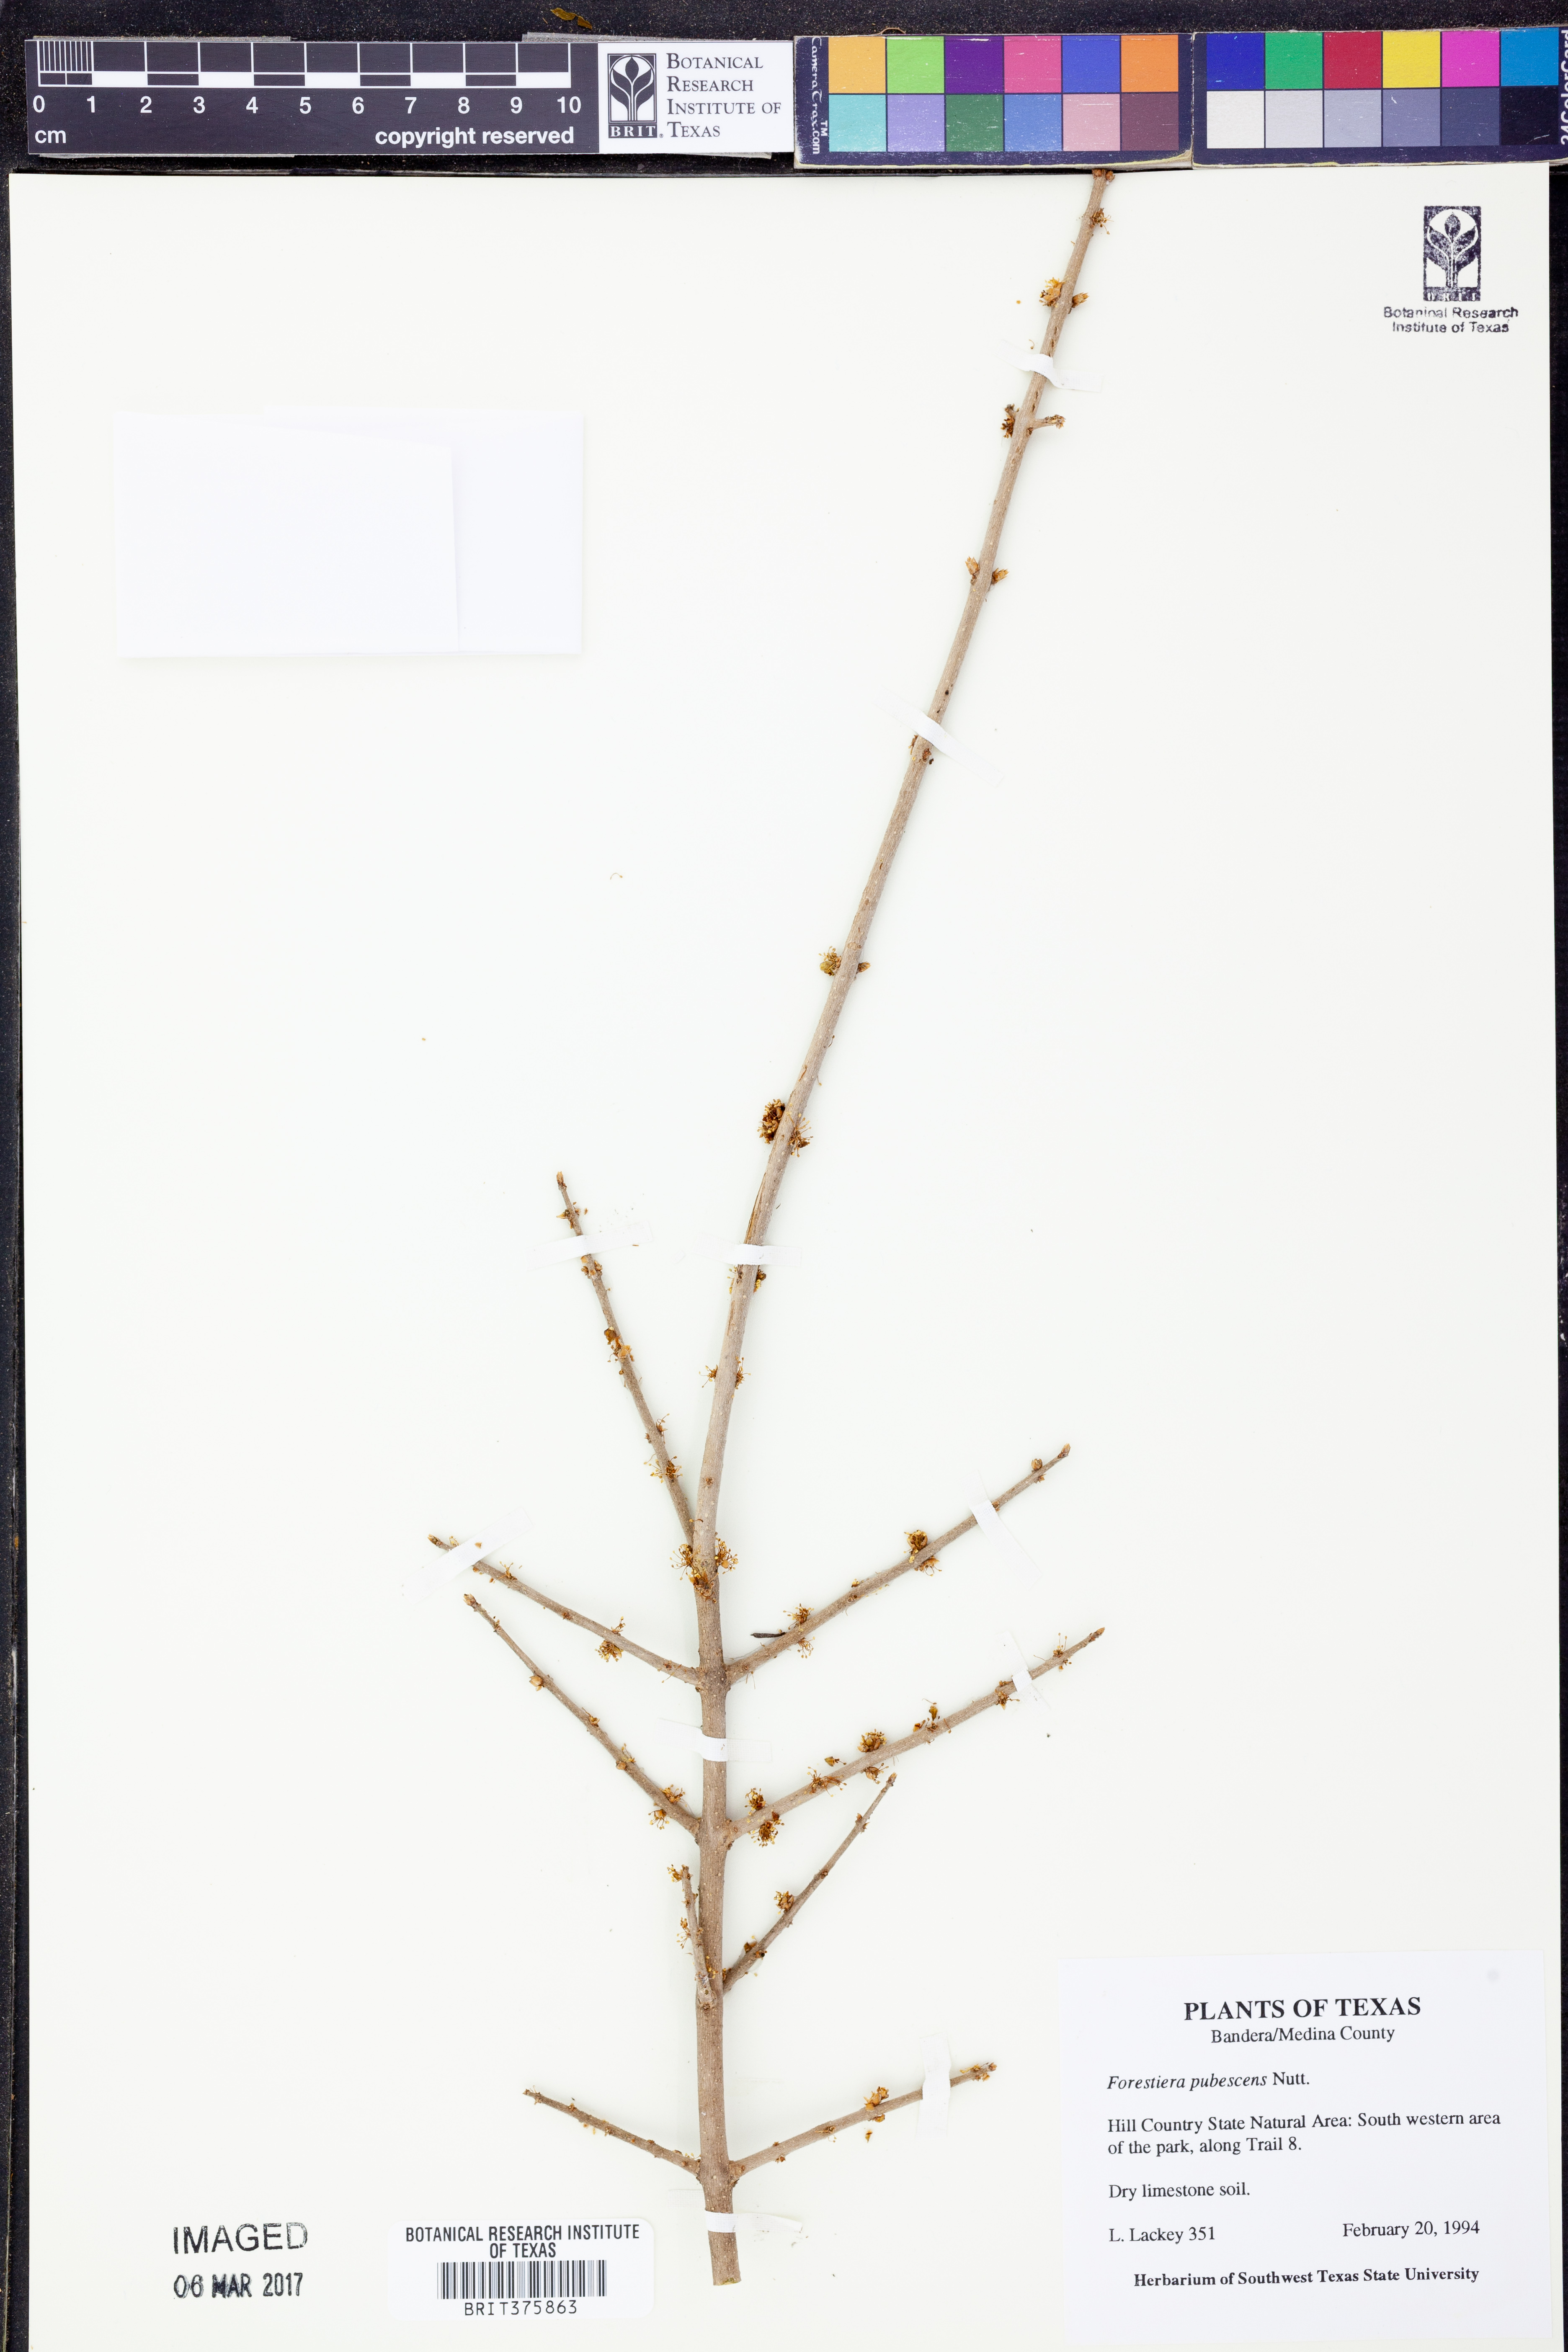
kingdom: Plantae
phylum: Tracheophyta
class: Magnoliopsida
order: Lamiales
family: Oleaceae
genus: Forestiera
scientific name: Forestiera pubescens
